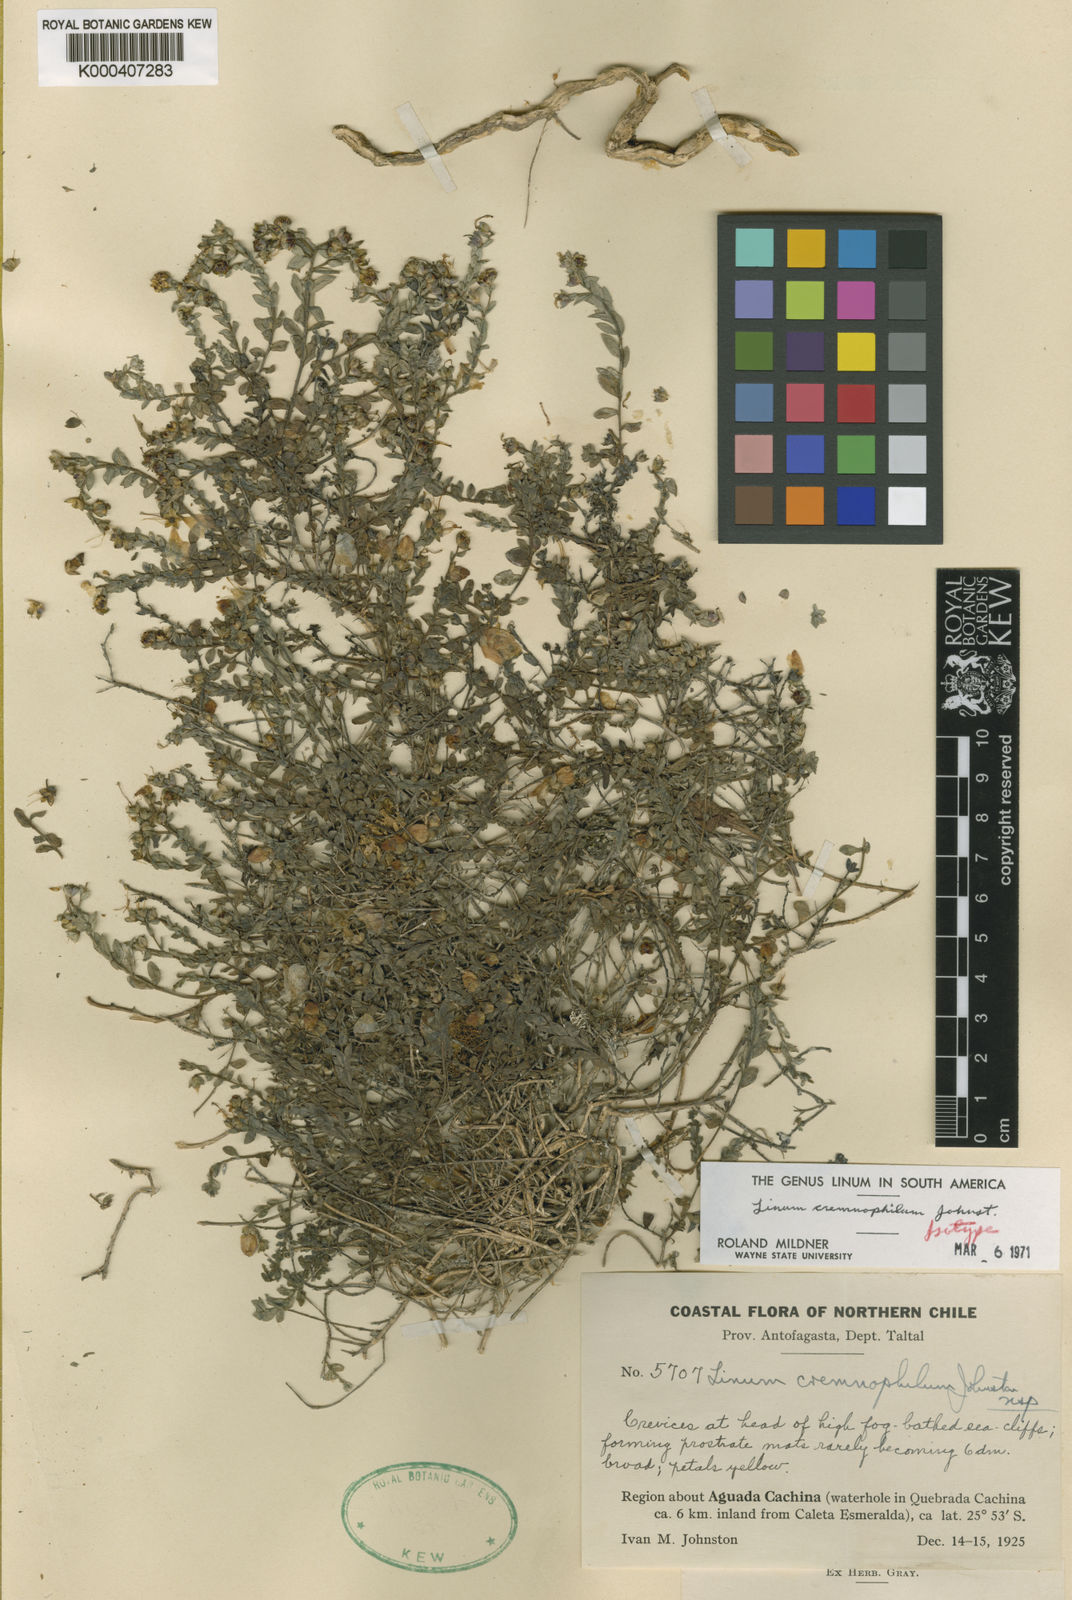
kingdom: Plantae
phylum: Tracheophyta
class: Magnoliopsida
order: Malpighiales
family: Linaceae
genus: Linum
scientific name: Linum cremnophilum
